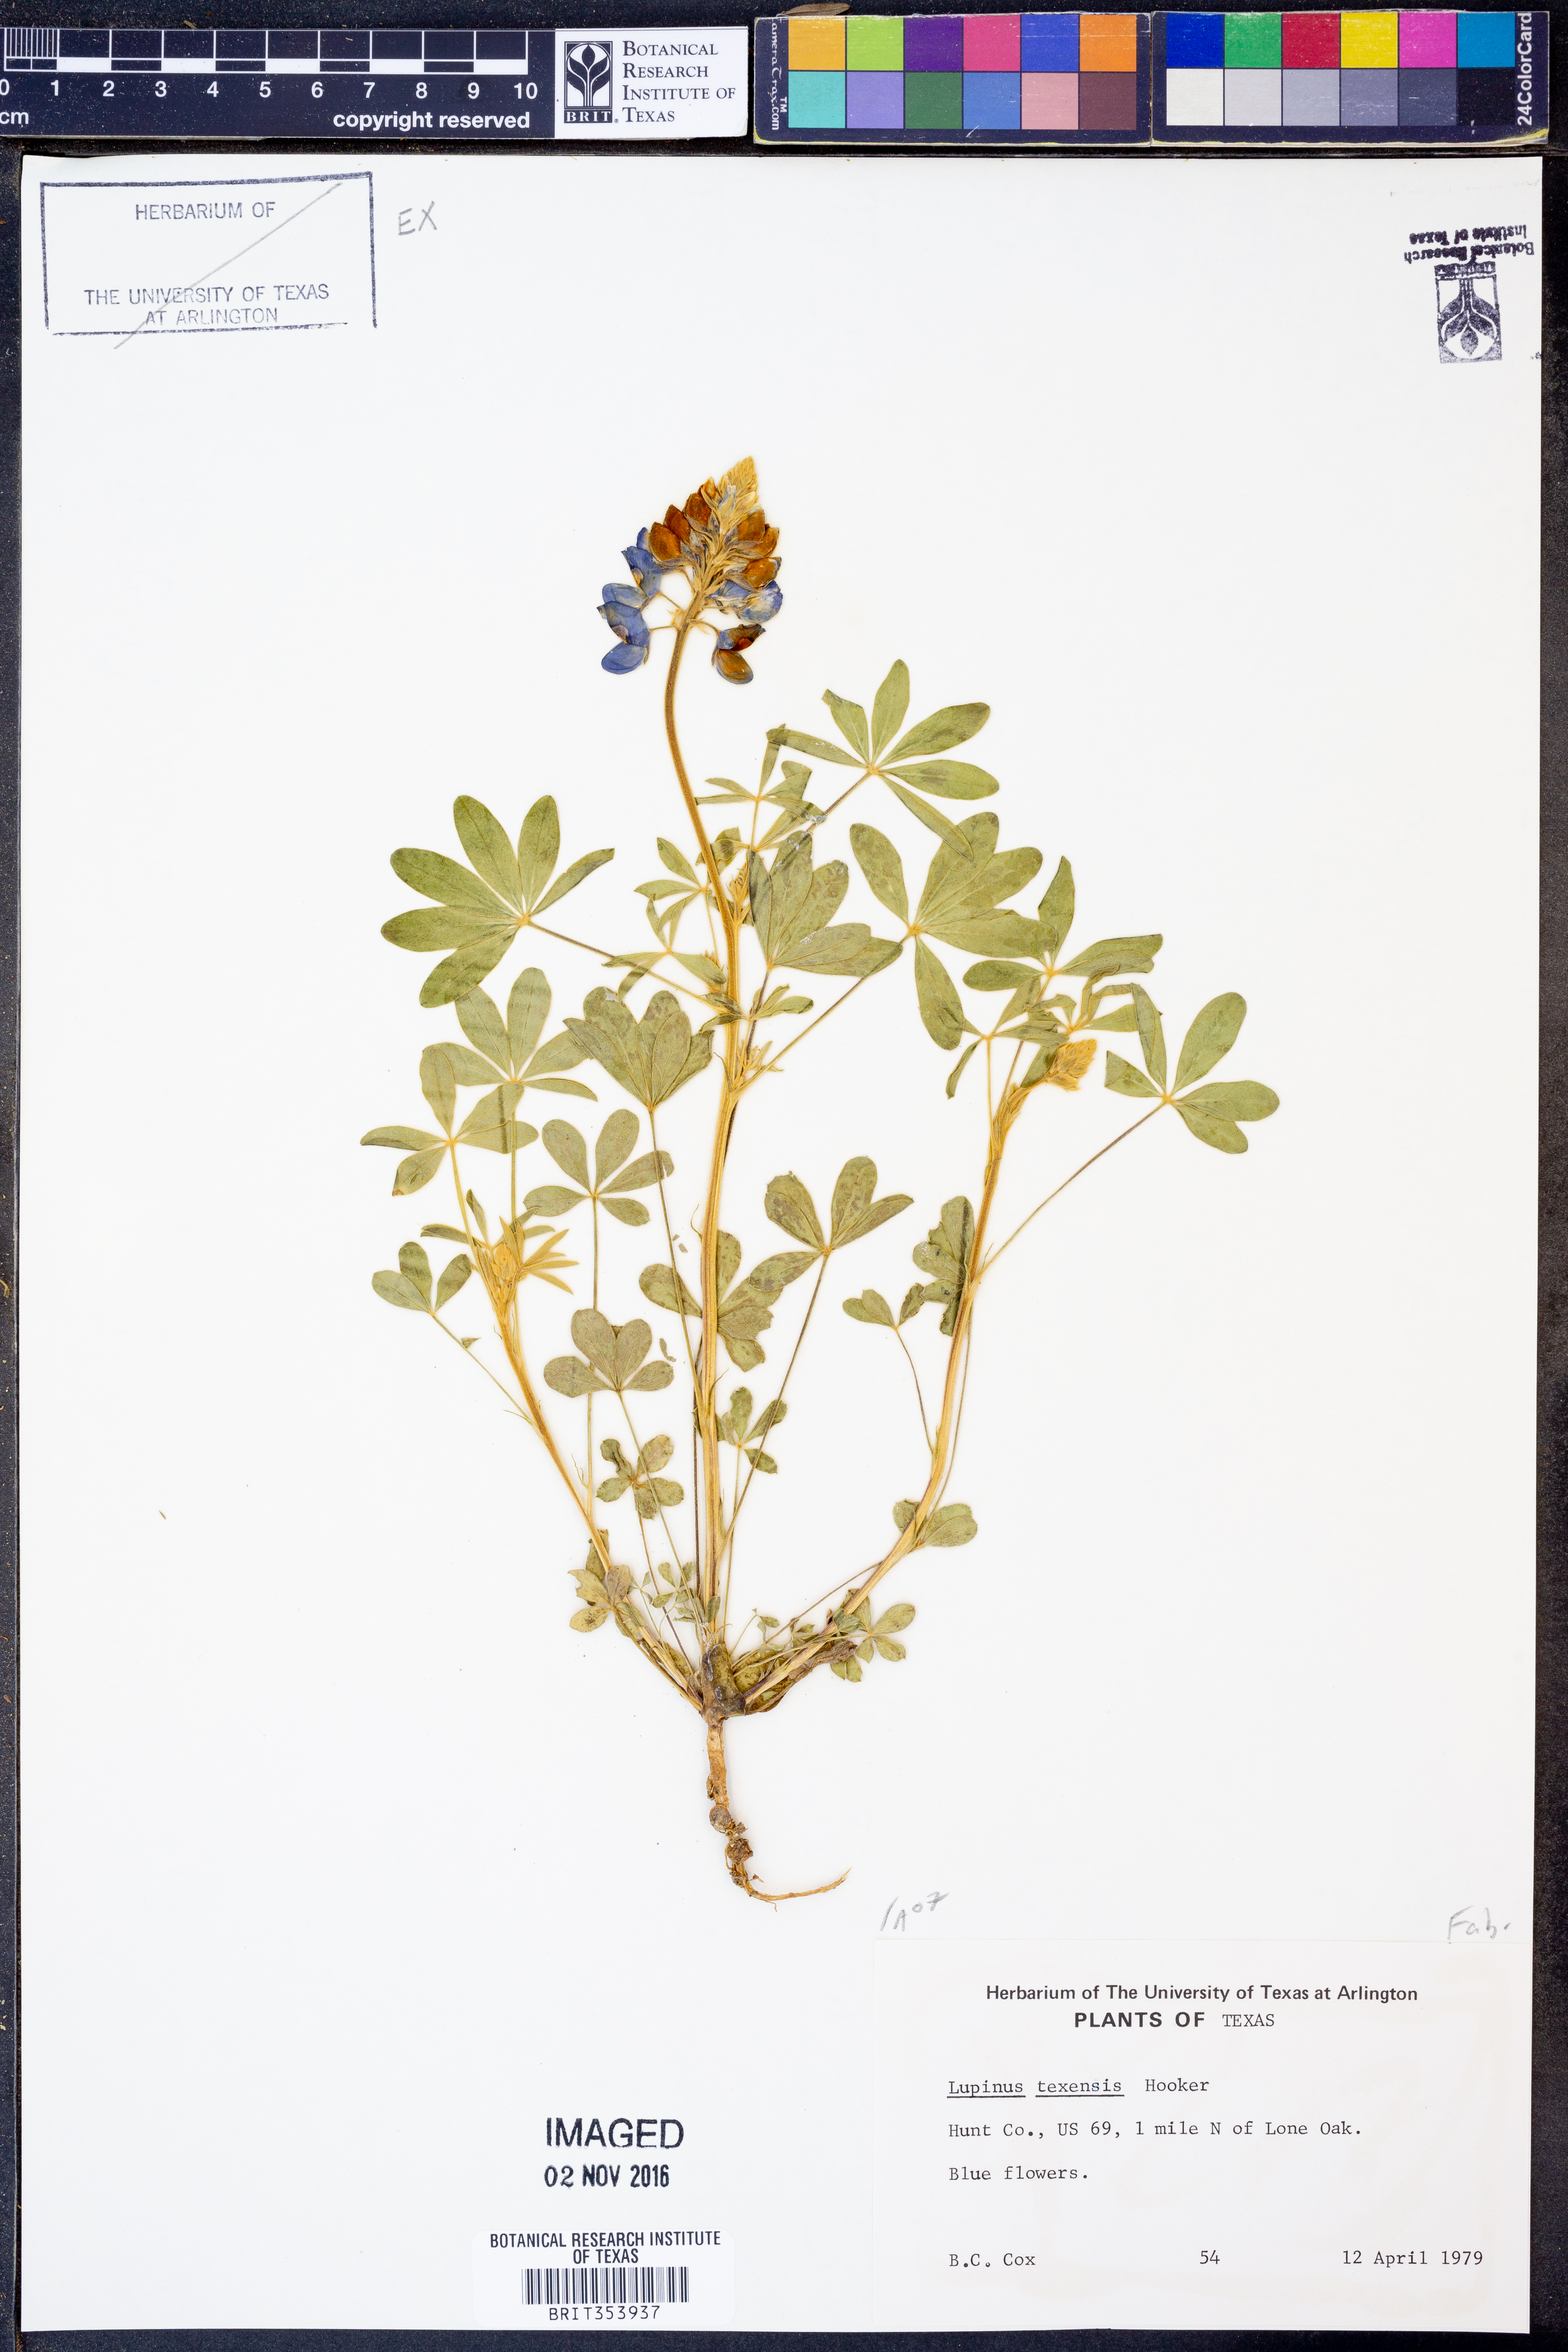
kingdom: Plantae
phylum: Tracheophyta
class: Magnoliopsida
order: Fabales
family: Fabaceae
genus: Lupinus
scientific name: Lupinus texensis
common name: Texas bluebonnet
